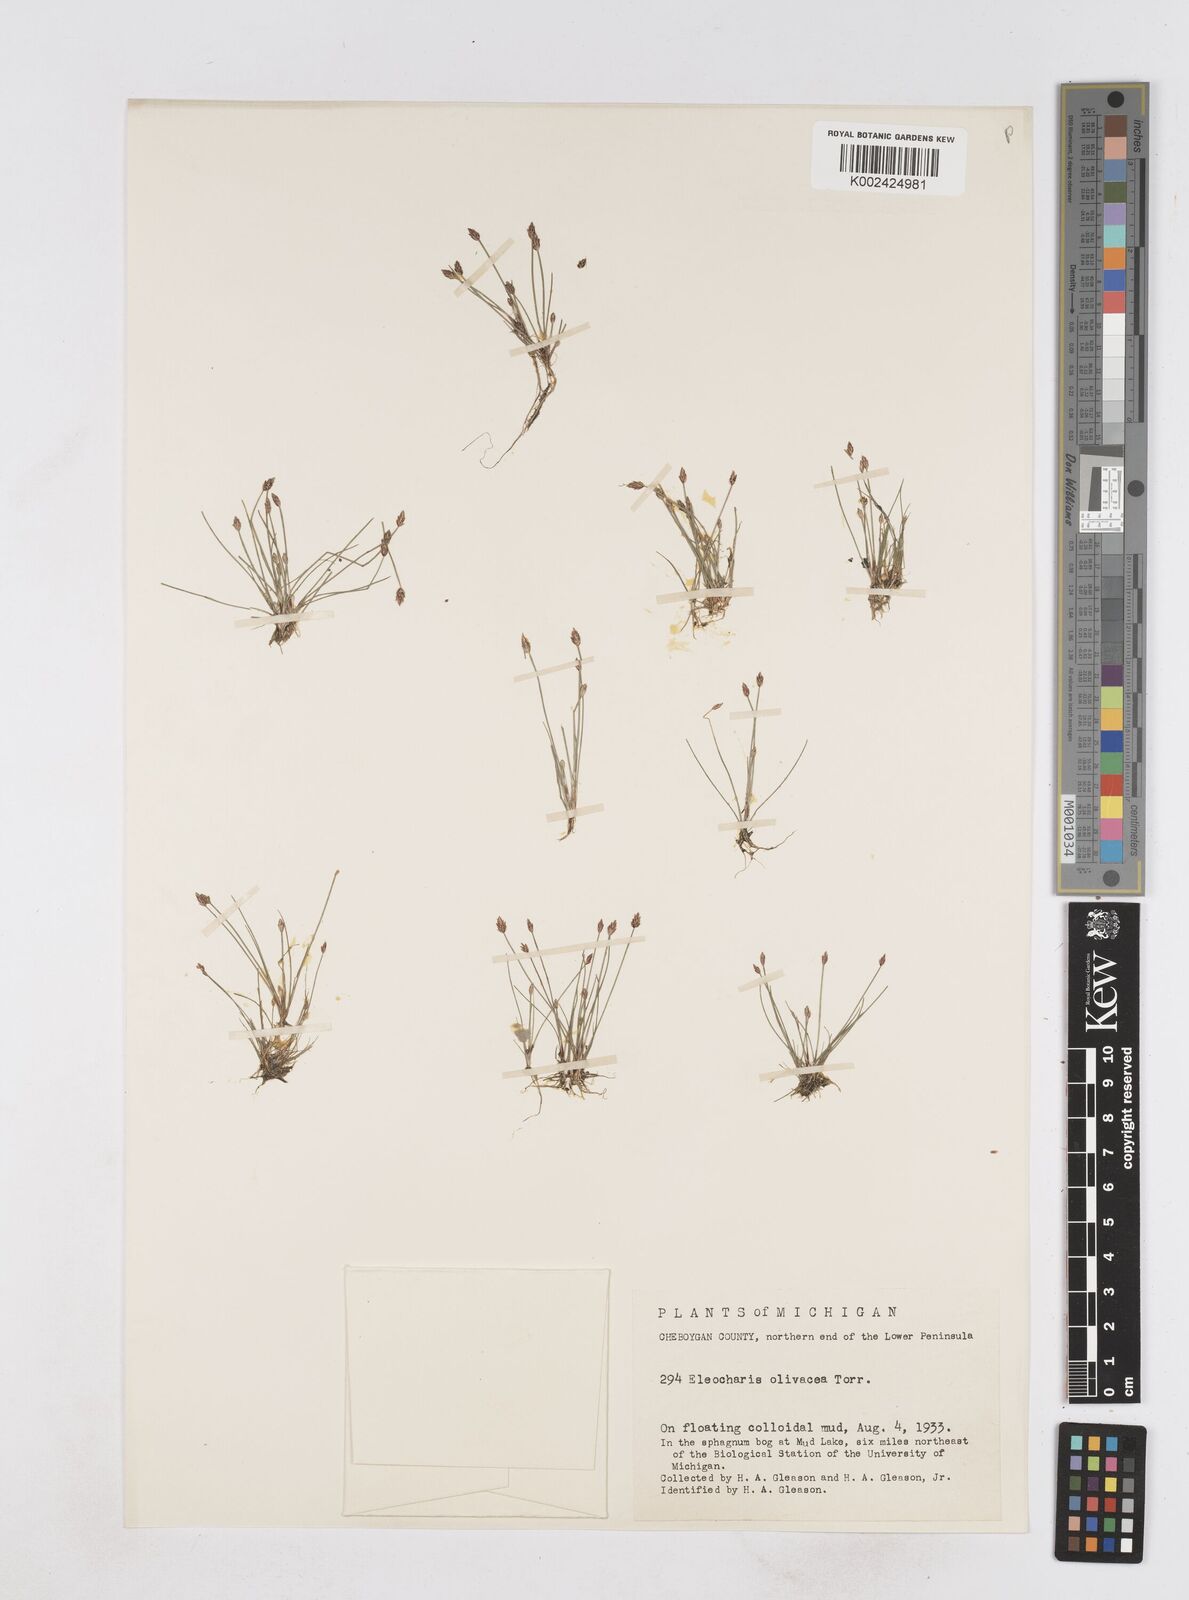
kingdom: Plantae
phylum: Tracheophyta
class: Liliopsida
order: Poales
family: Cyperaceae
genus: Eleocharis
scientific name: Eleocharis flavescens
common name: Yellow spikerush
